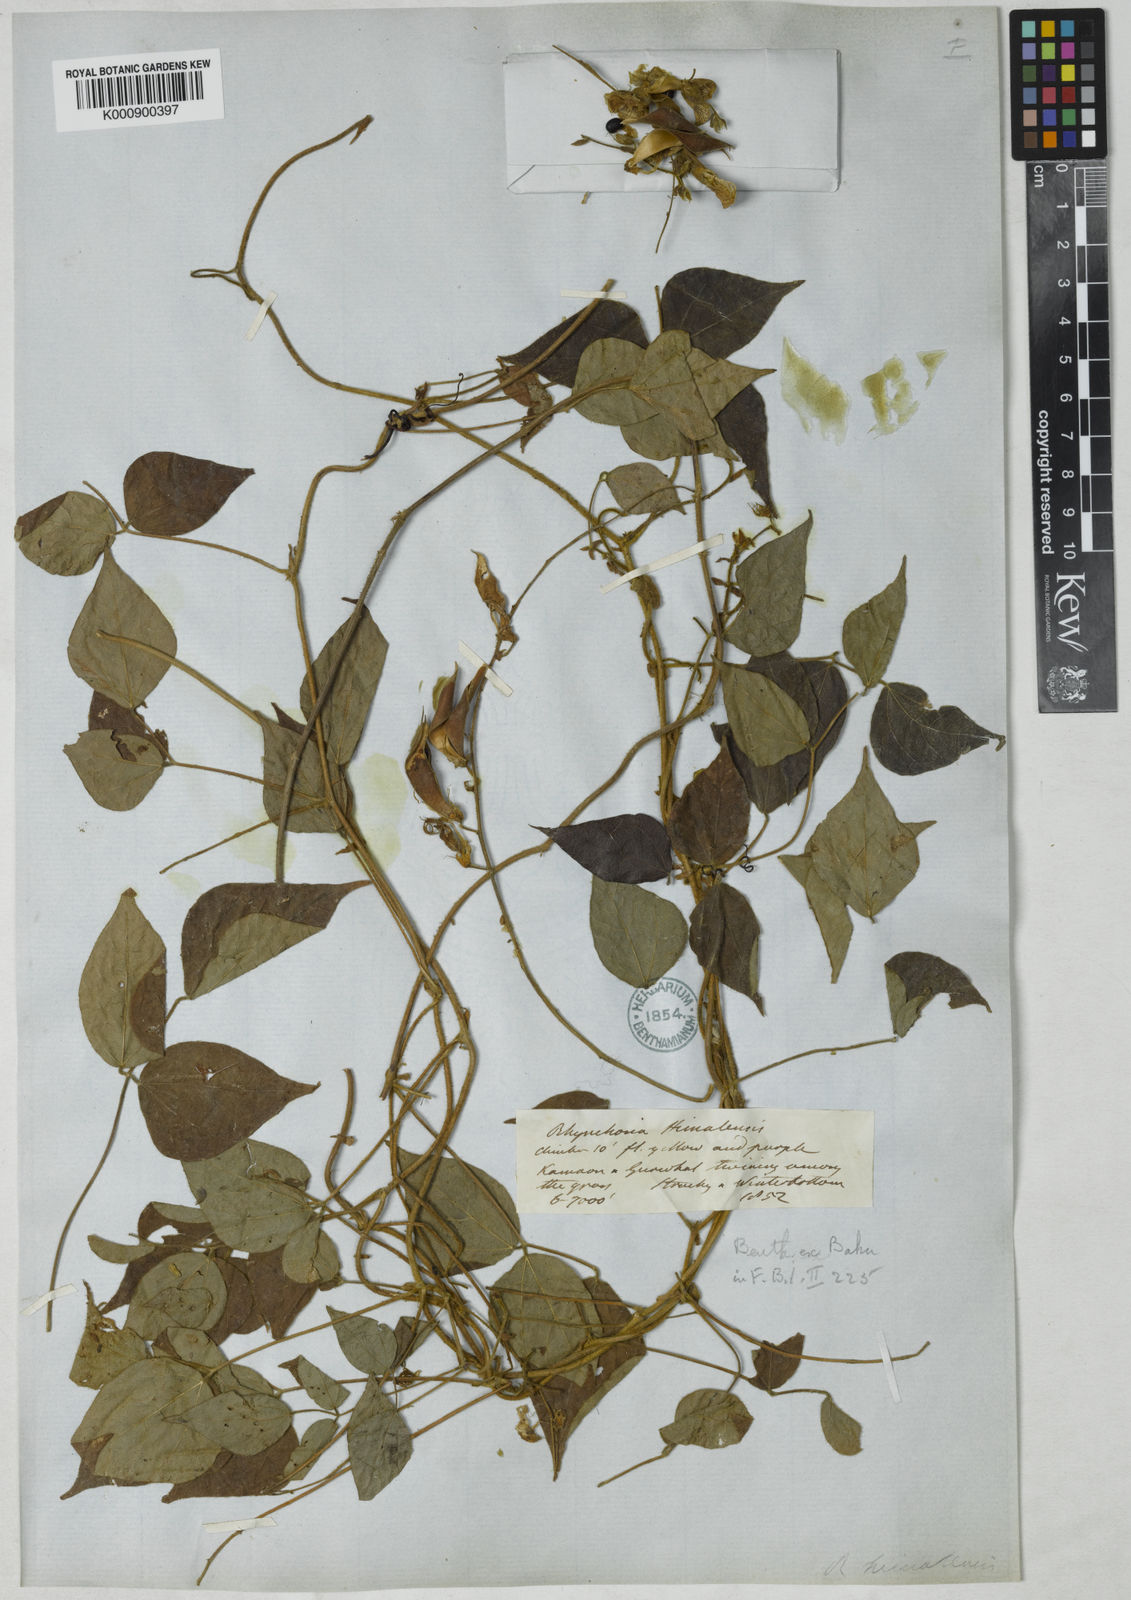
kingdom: Plantae
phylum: Tracheophyta
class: Magnoliopsida
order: Fabales
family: Fabaceae
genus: Rhynchosia
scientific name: Rhynchosia himalensis
